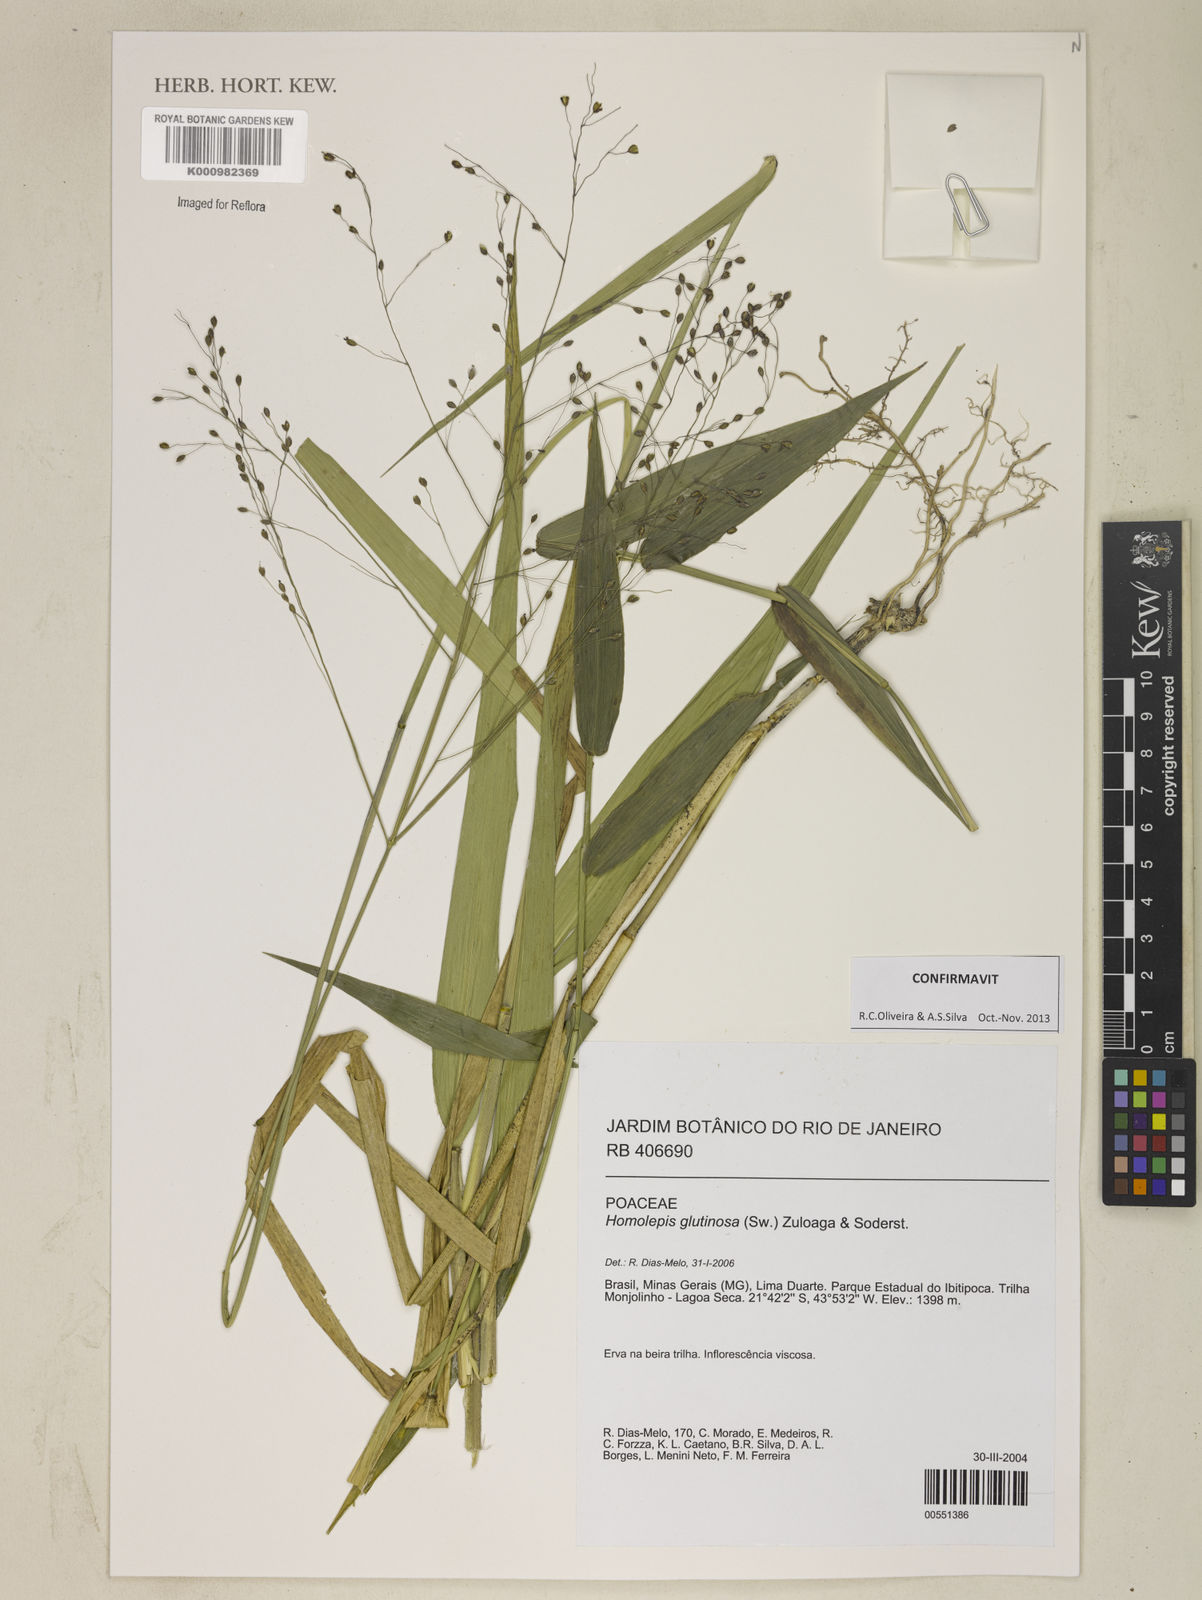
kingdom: Plantae
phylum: Tracheophyta
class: Liliopsida
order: Poales
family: Poaceae
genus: Homolepis
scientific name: Homolepis glutinosa
